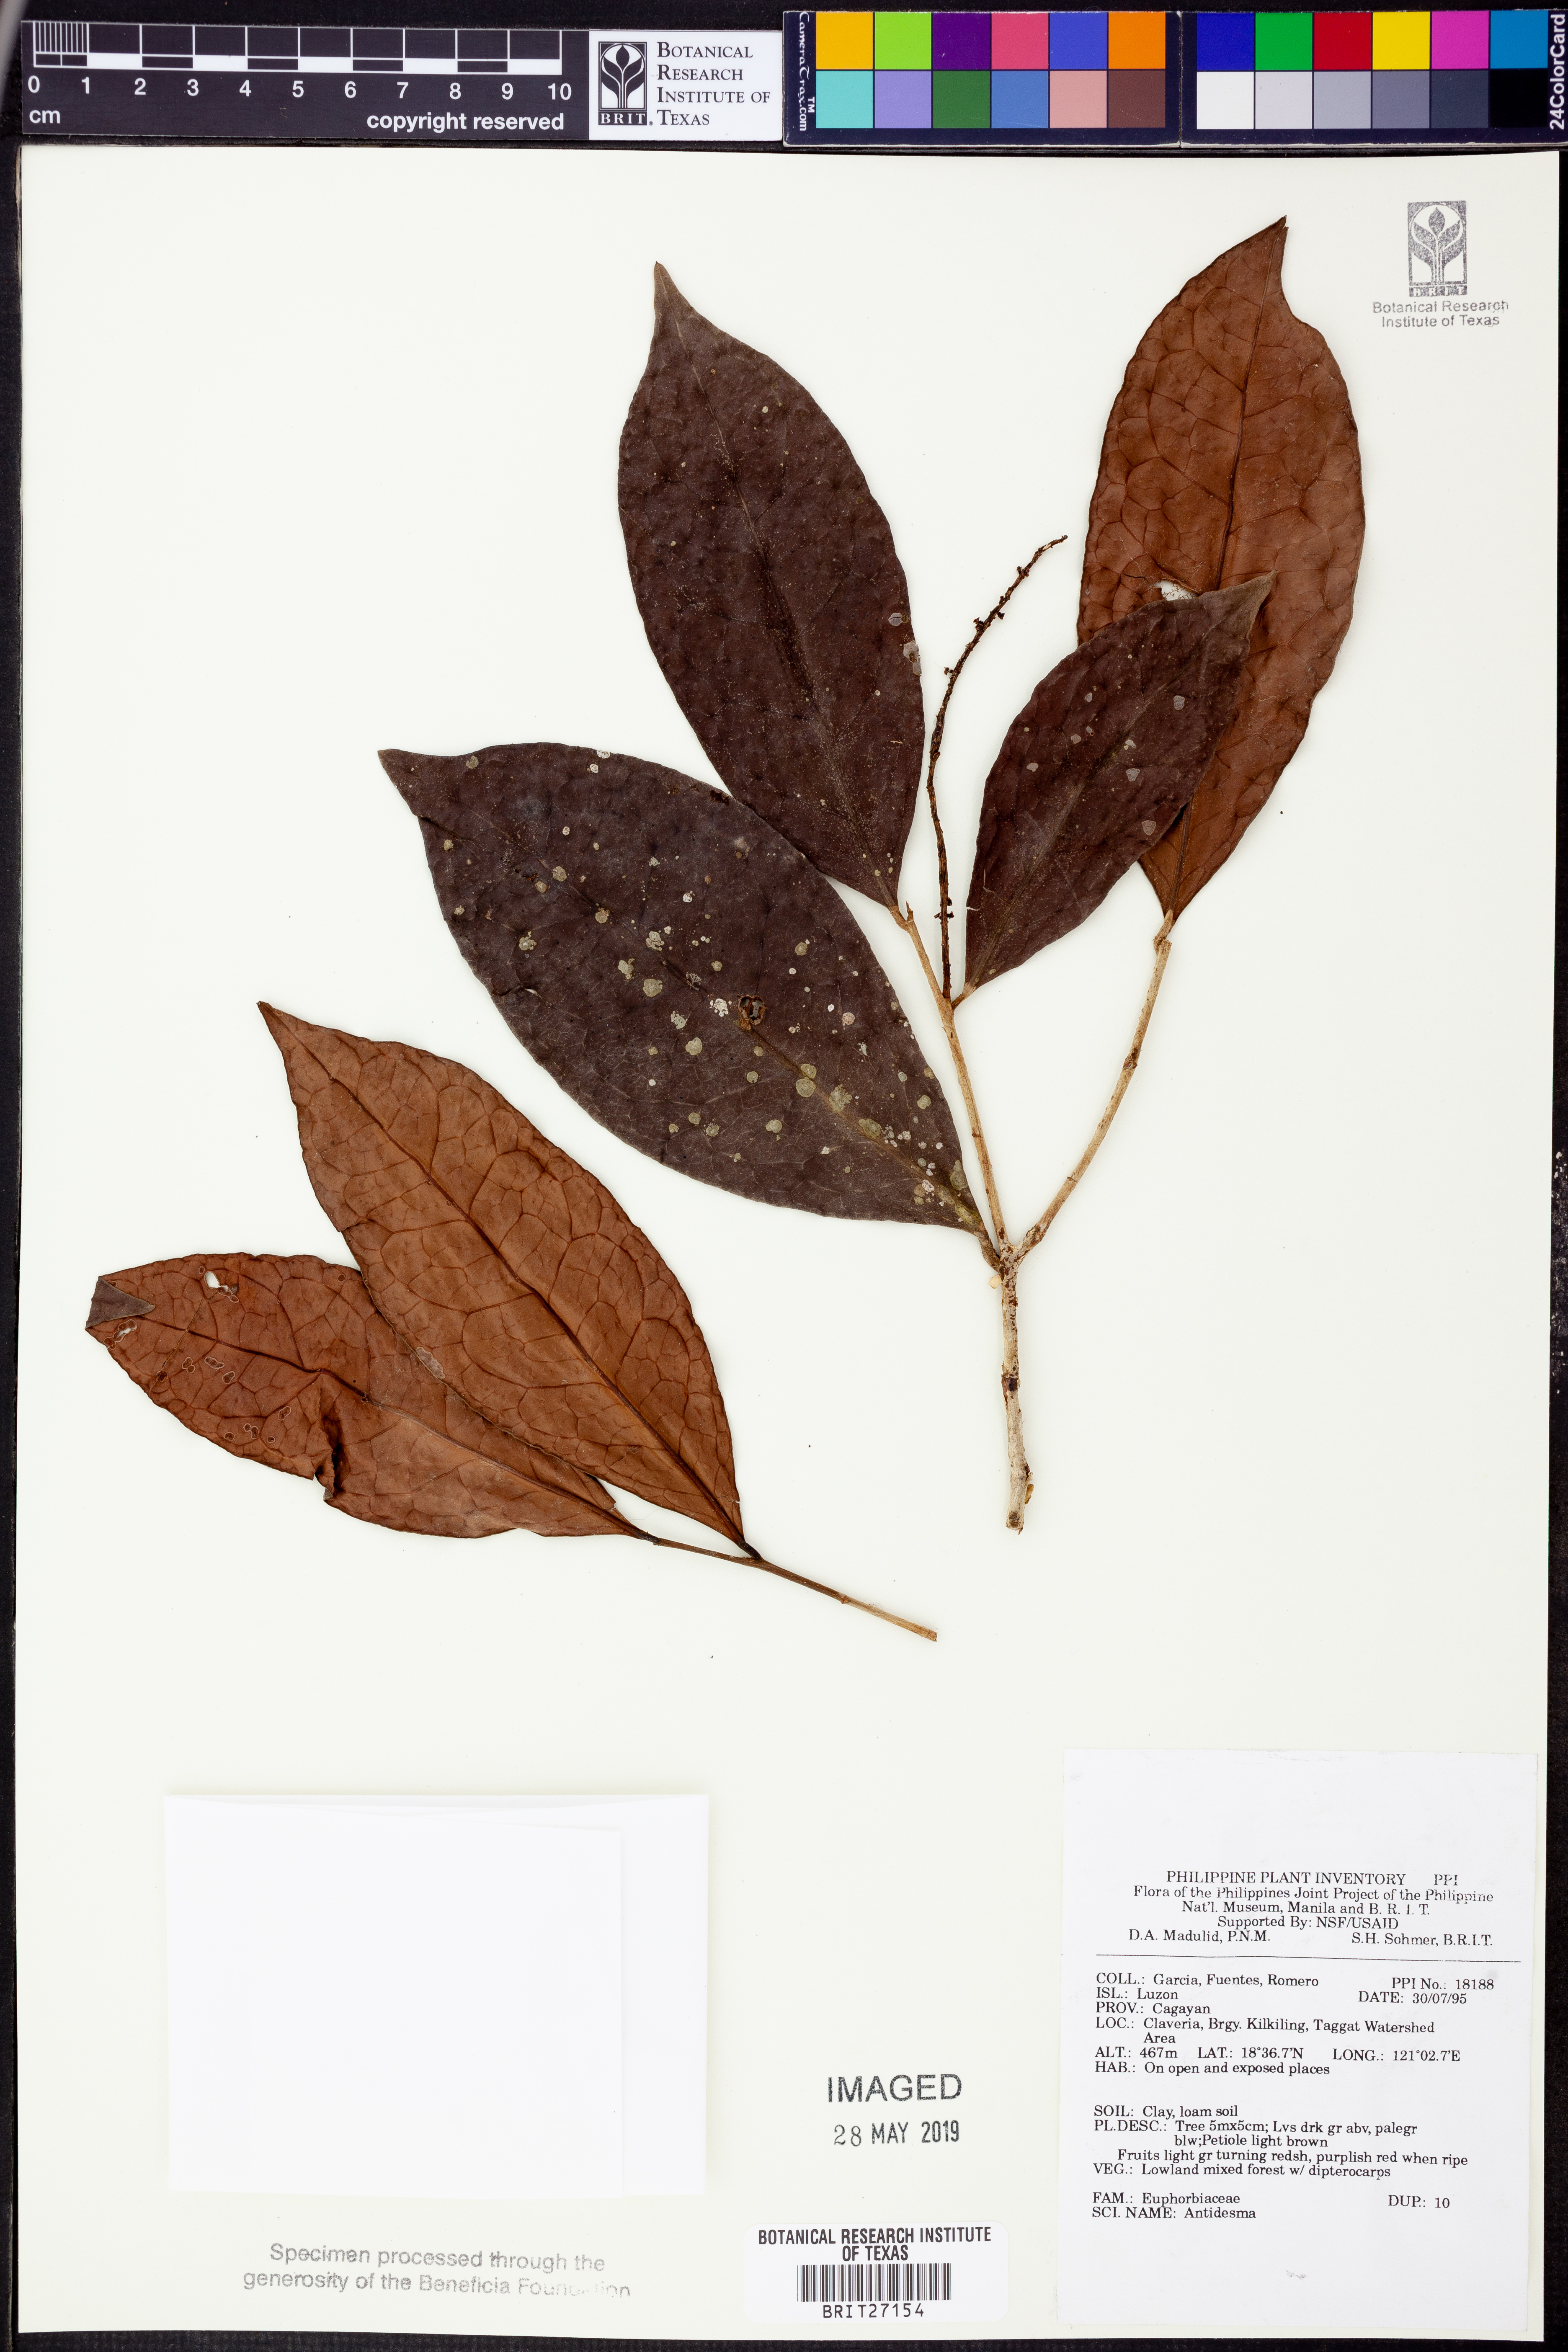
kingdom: Plantae
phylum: Tracheophyta
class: Magnoliopsida
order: Malpighiales
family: Phyllanthaceae
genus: Antidesma
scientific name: Antidesma
